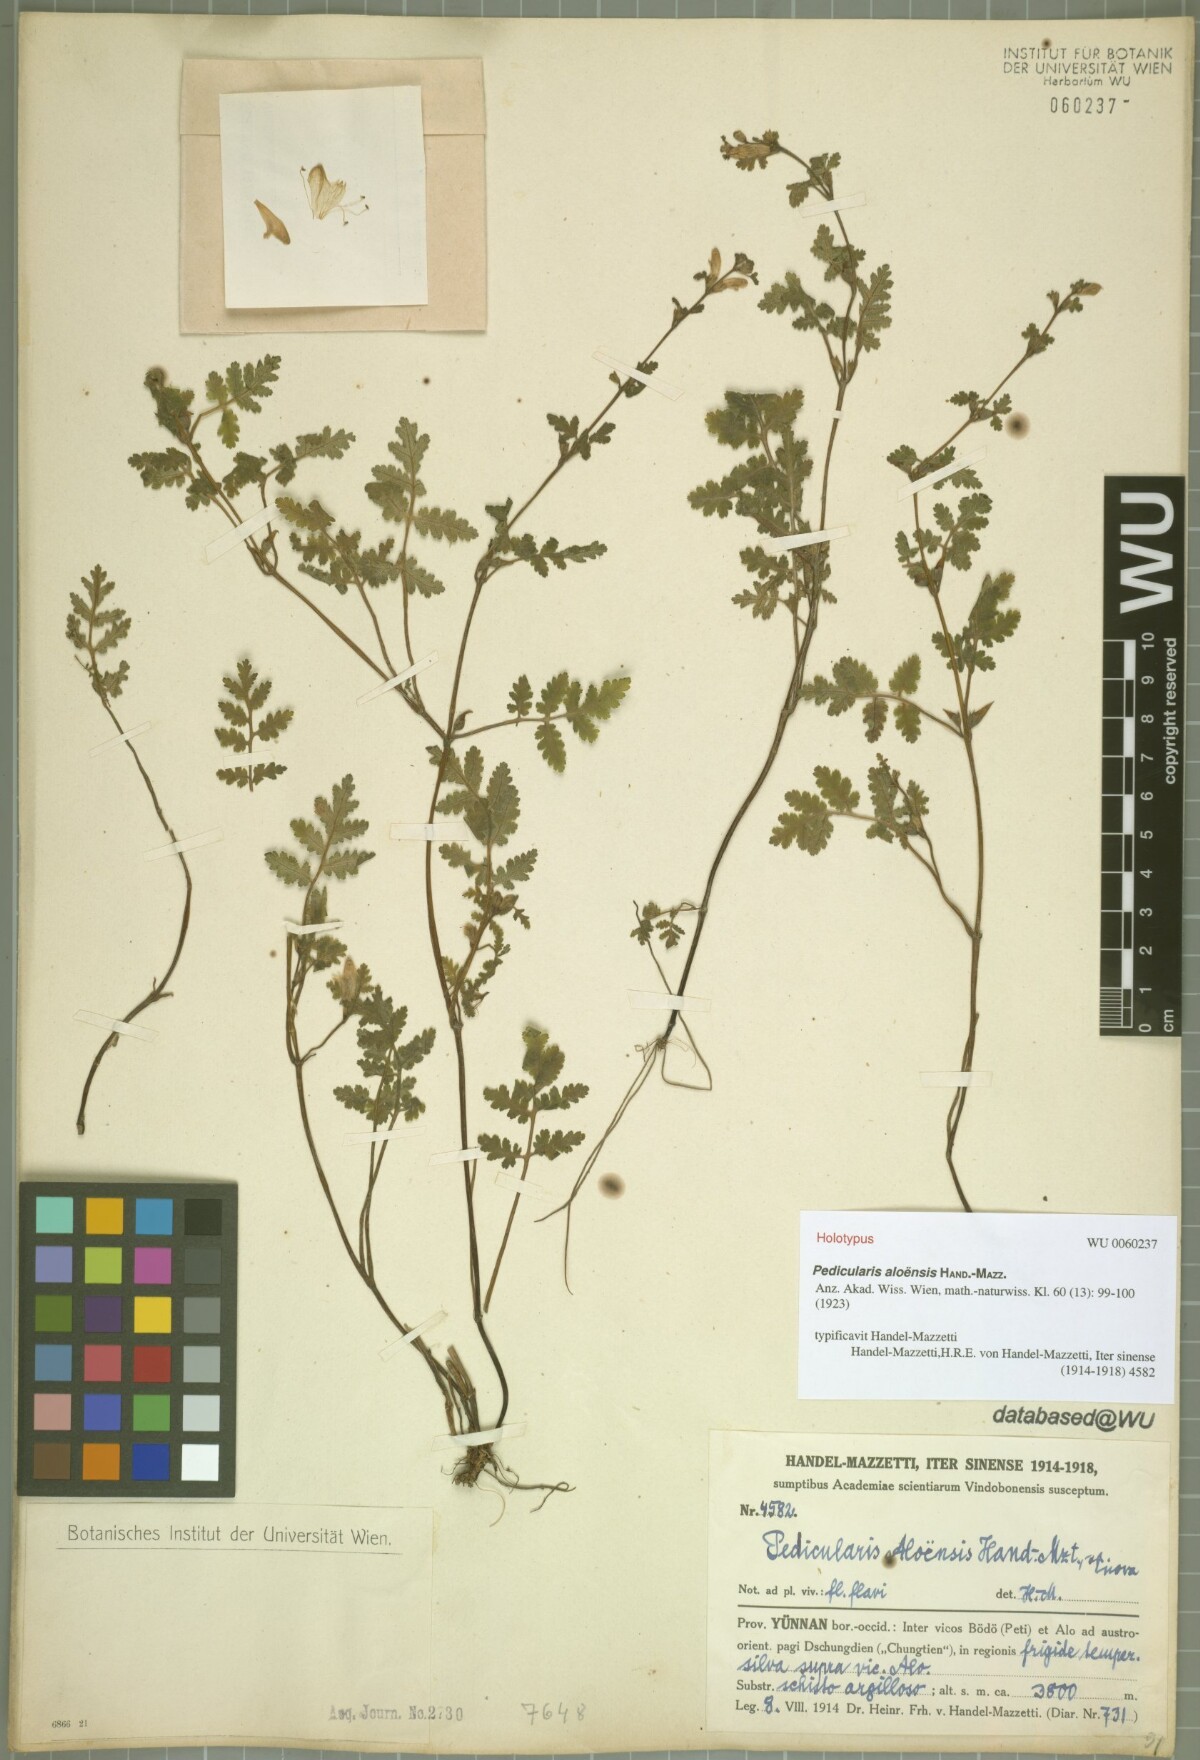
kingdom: Plantae
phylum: Tracheophyta
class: Magnoliopsida
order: Lamiales
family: Orobanchaceae
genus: Pedicularis
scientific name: Pedicularis aloensis
